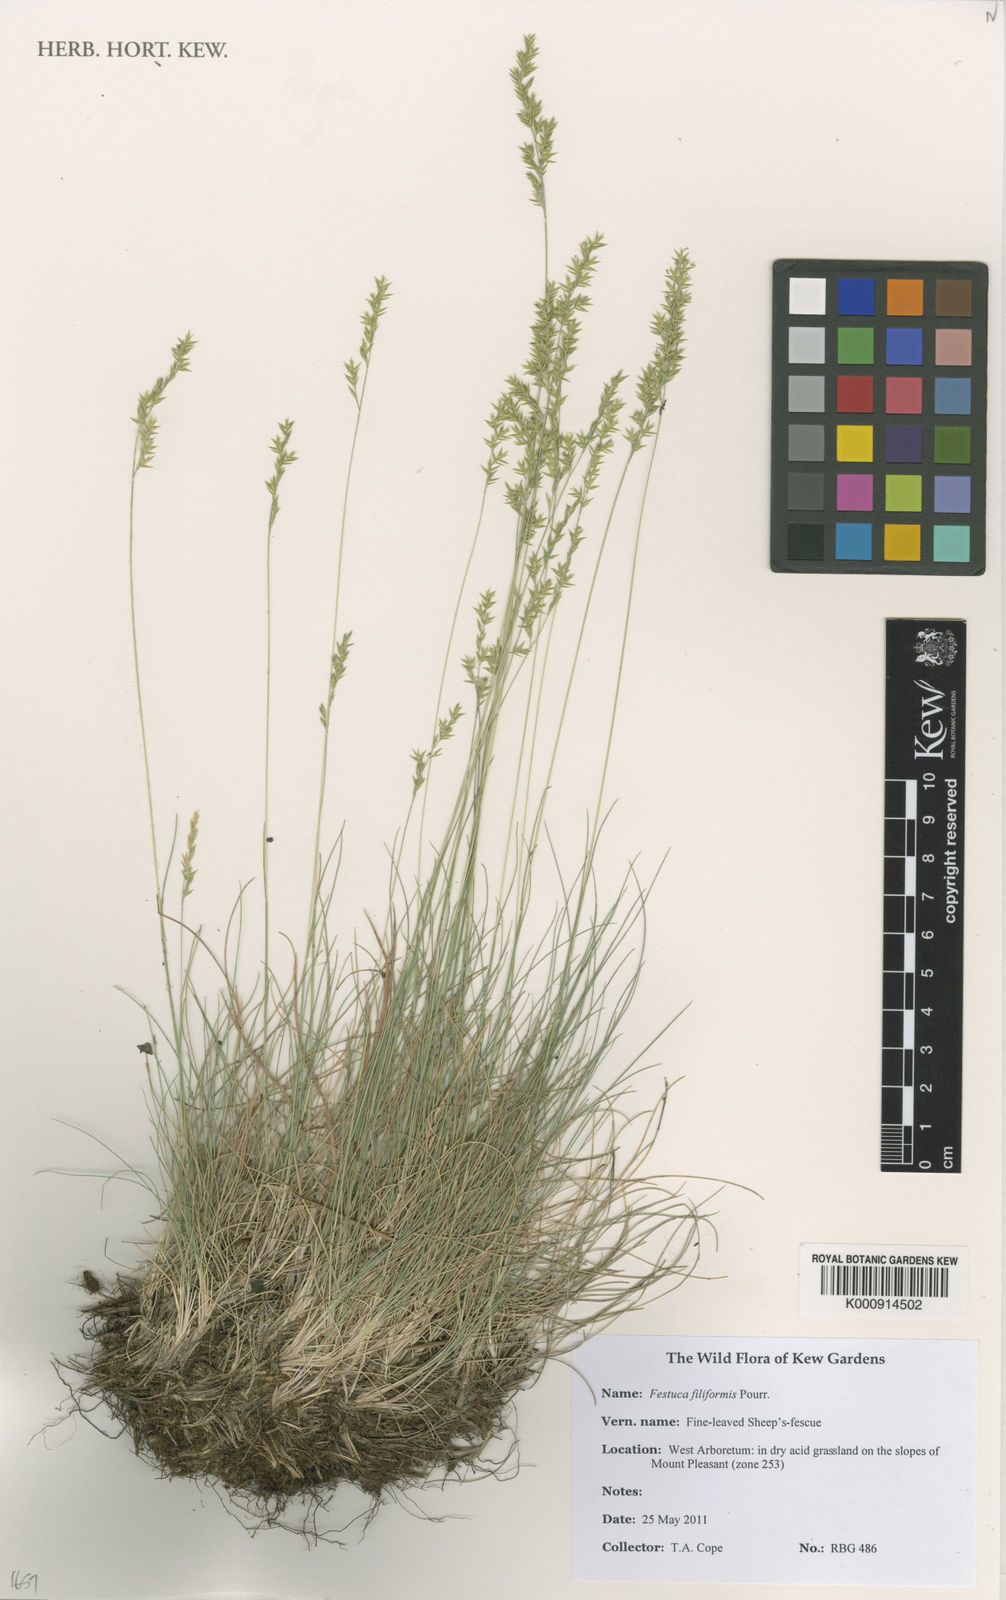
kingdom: Plantae
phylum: Tracheophyta
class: Liliopsida
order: Poales
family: Poaceae
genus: Festuca
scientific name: Festuca filiformis
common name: Fine-leaved sheep's-fescue
